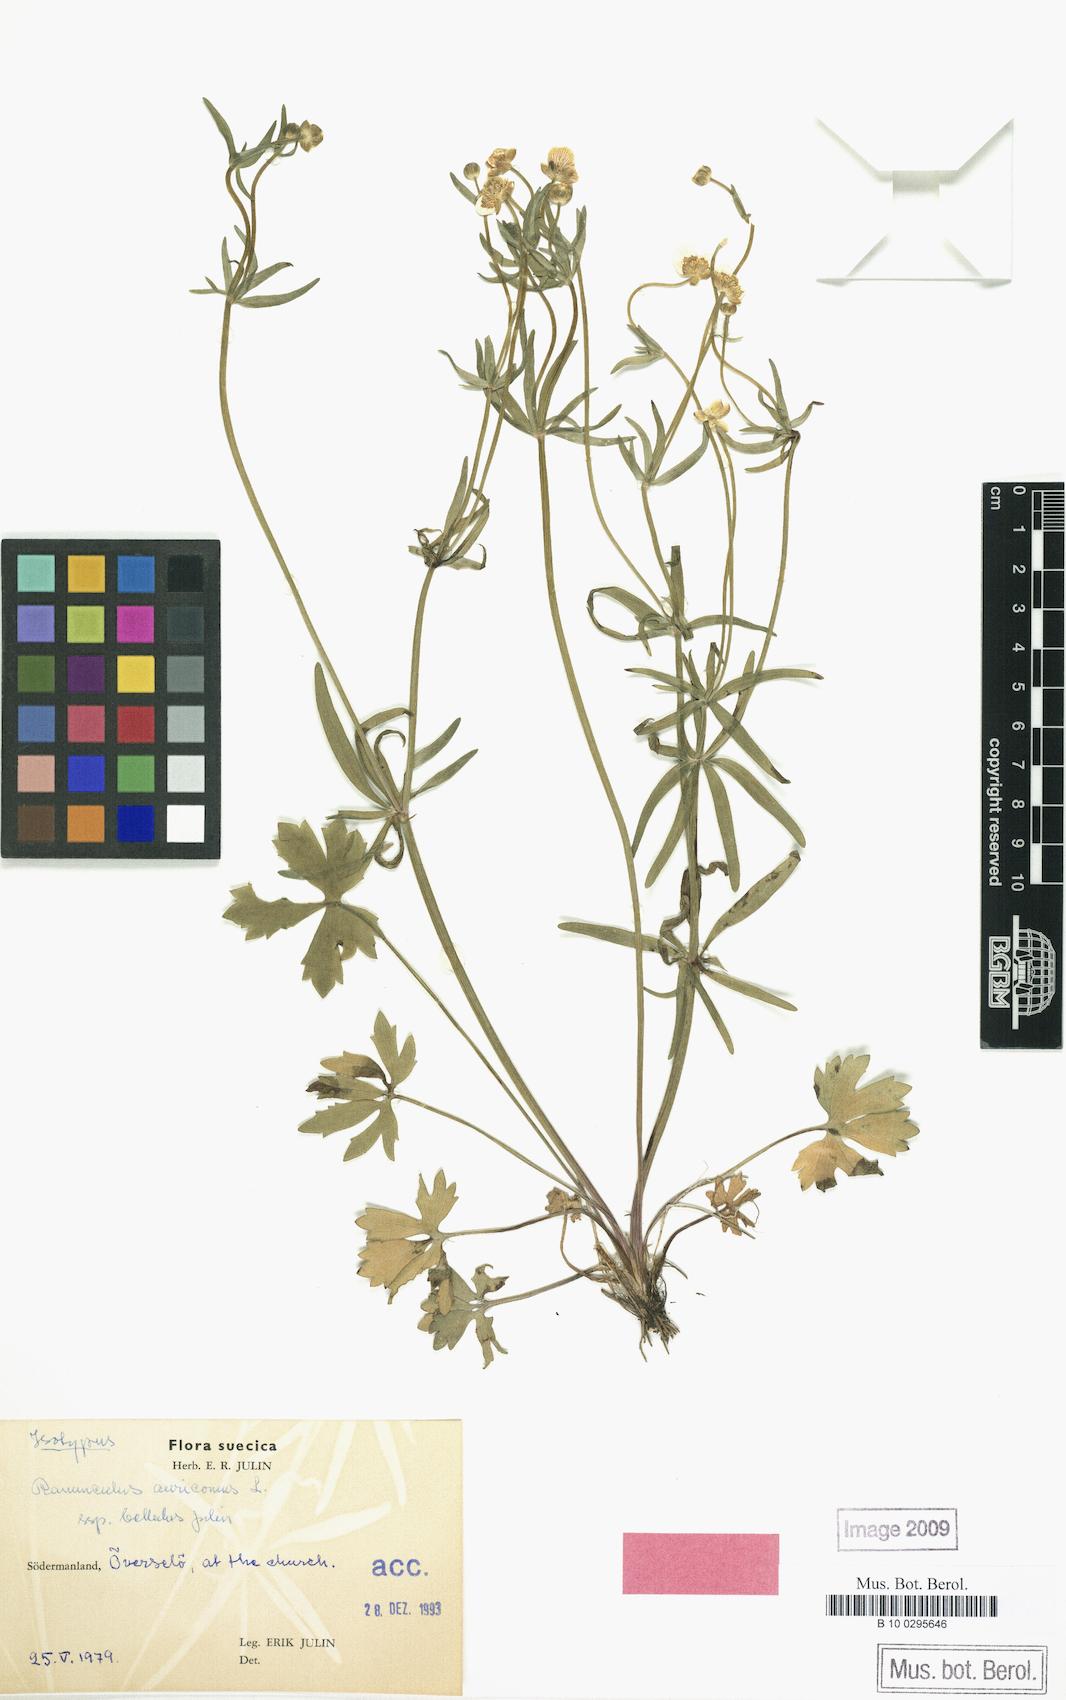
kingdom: Plantae
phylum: Tracheophyta
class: Magnoliopsida
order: Ranunculales
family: Ranunculaceae
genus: Ranunculus
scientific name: Ranunculus bellulus
